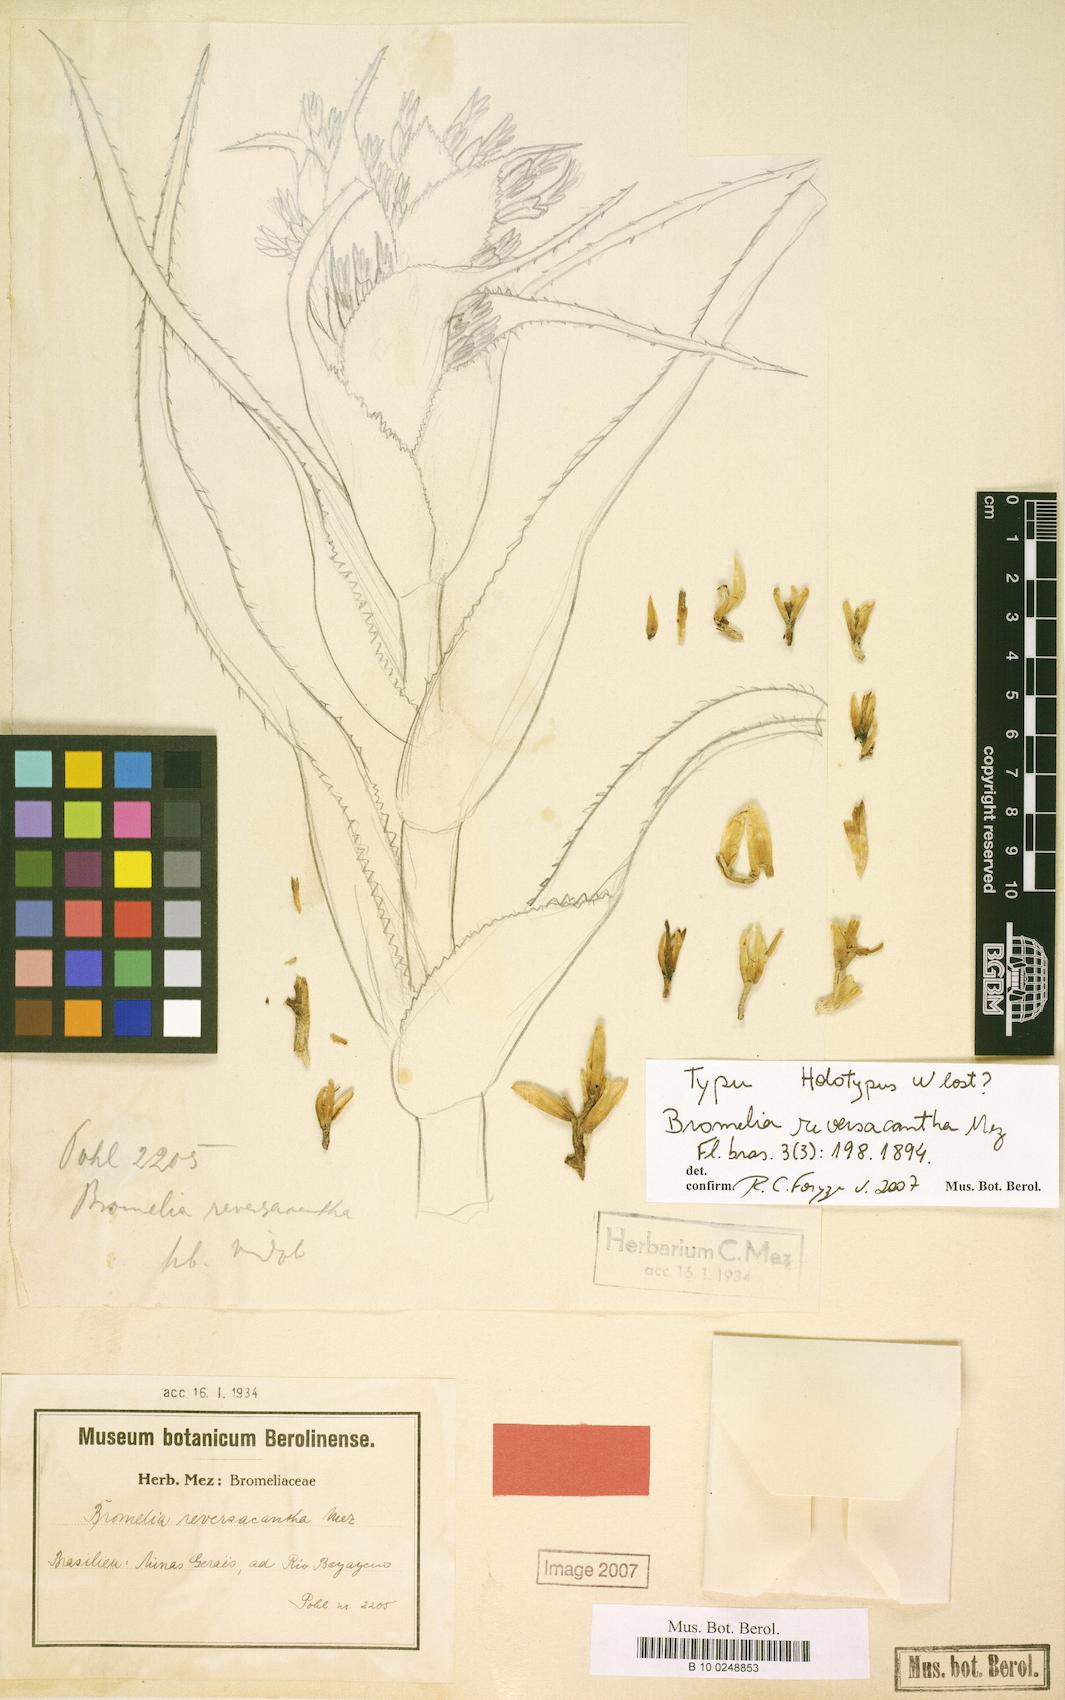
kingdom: Plantae
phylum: Tracheophyta
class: Liliopsida
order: Poales
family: Bromeliaceae
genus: Bromelia
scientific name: Bromelia reversacantha
